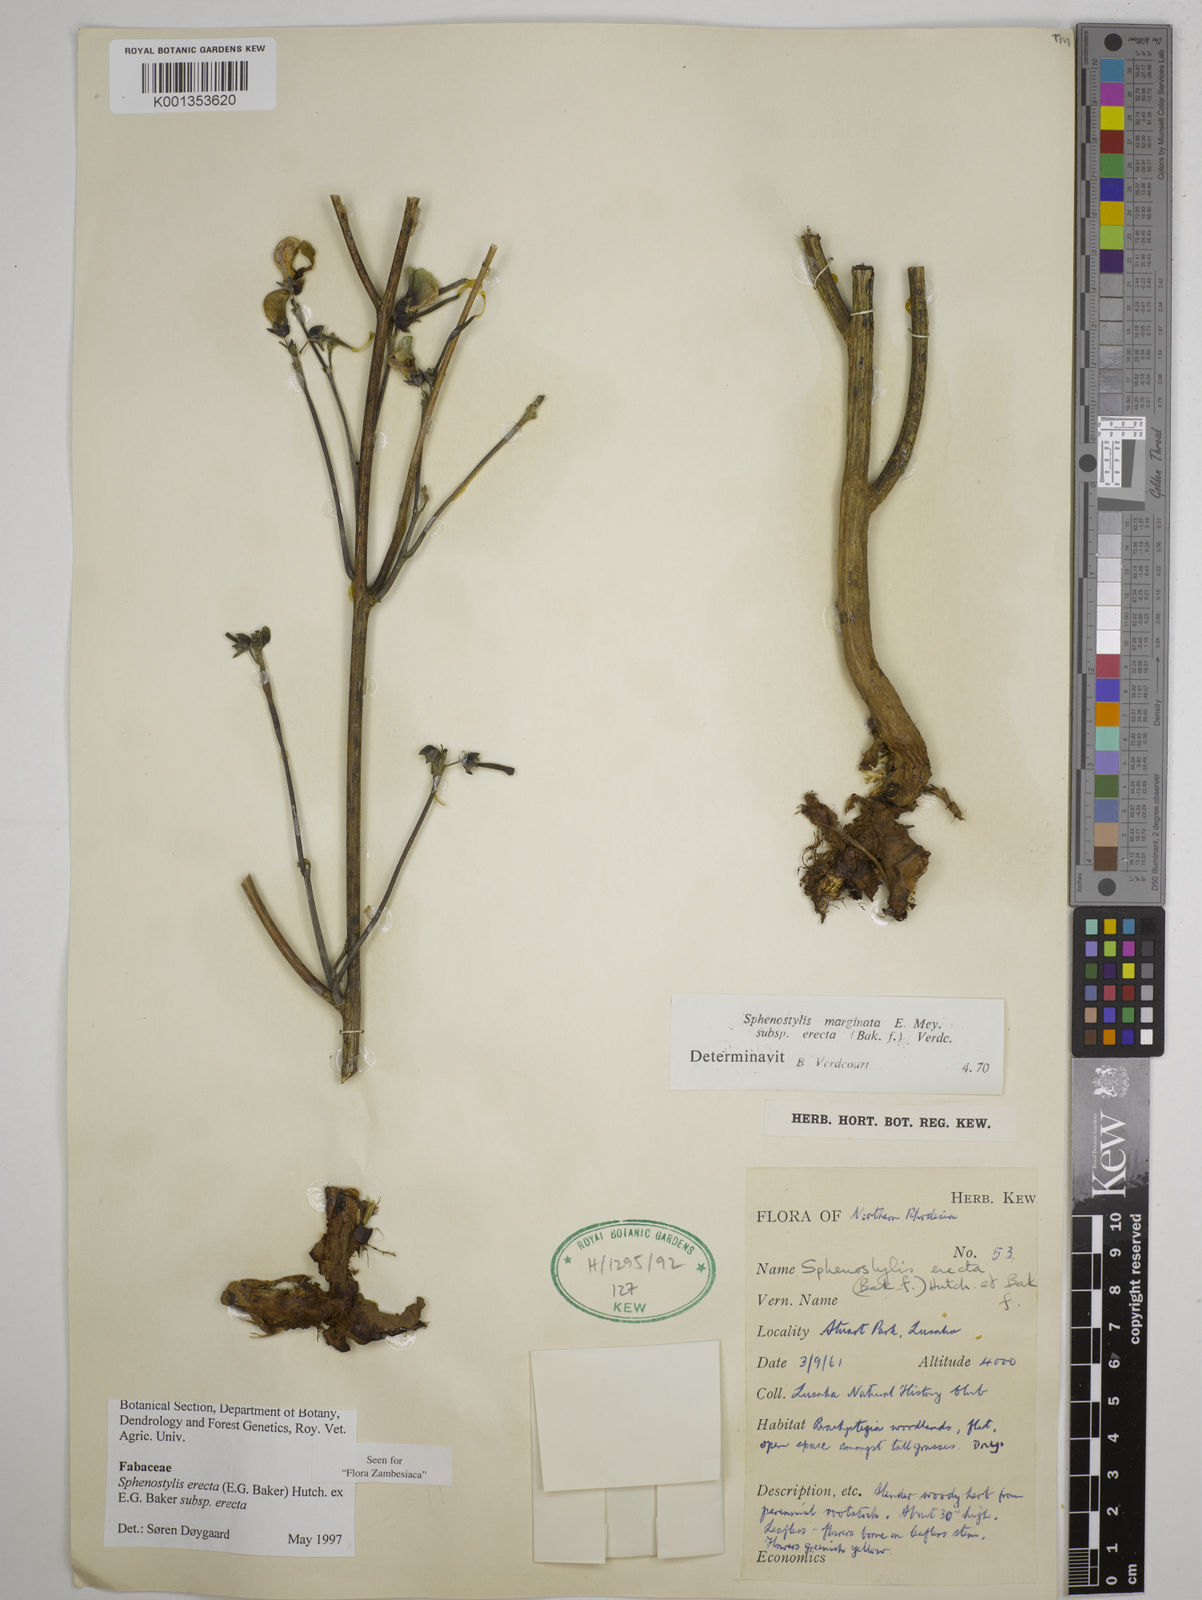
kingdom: Plantae
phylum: Tracheophyta
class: Magnoliopsida
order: Fabales
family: Fabaceae
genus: Sphenostylis
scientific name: Sphenostylis erecta
